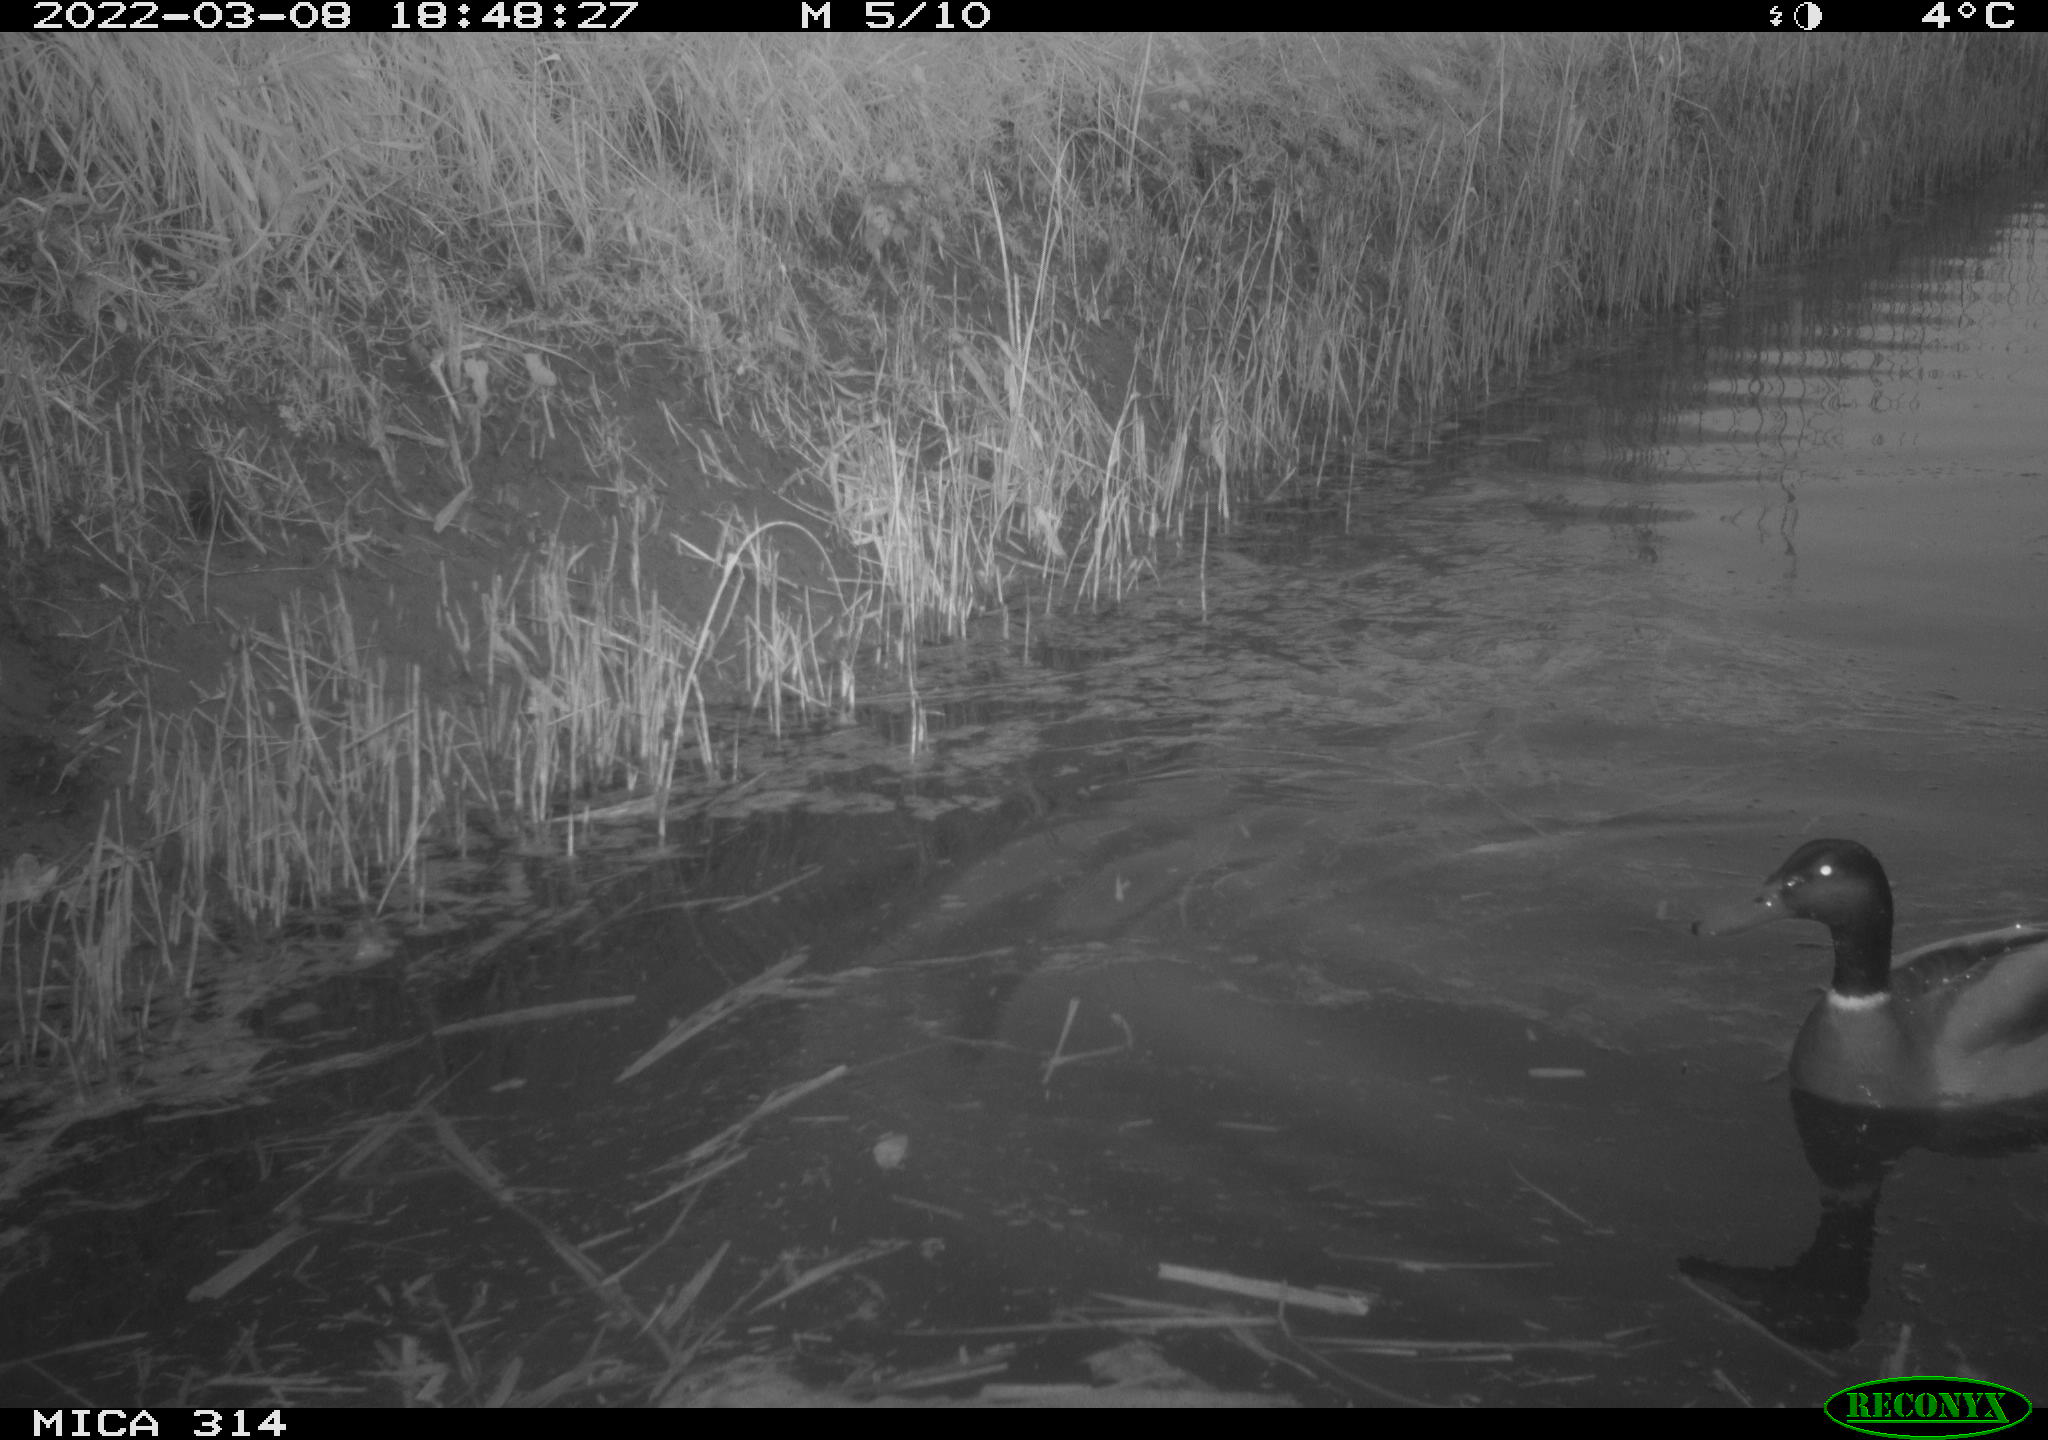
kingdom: Animalia
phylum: Chordata
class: Aves
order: Anseriformes
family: Anatidae
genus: Anas
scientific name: Anas platyrhynchos
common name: Mallard
